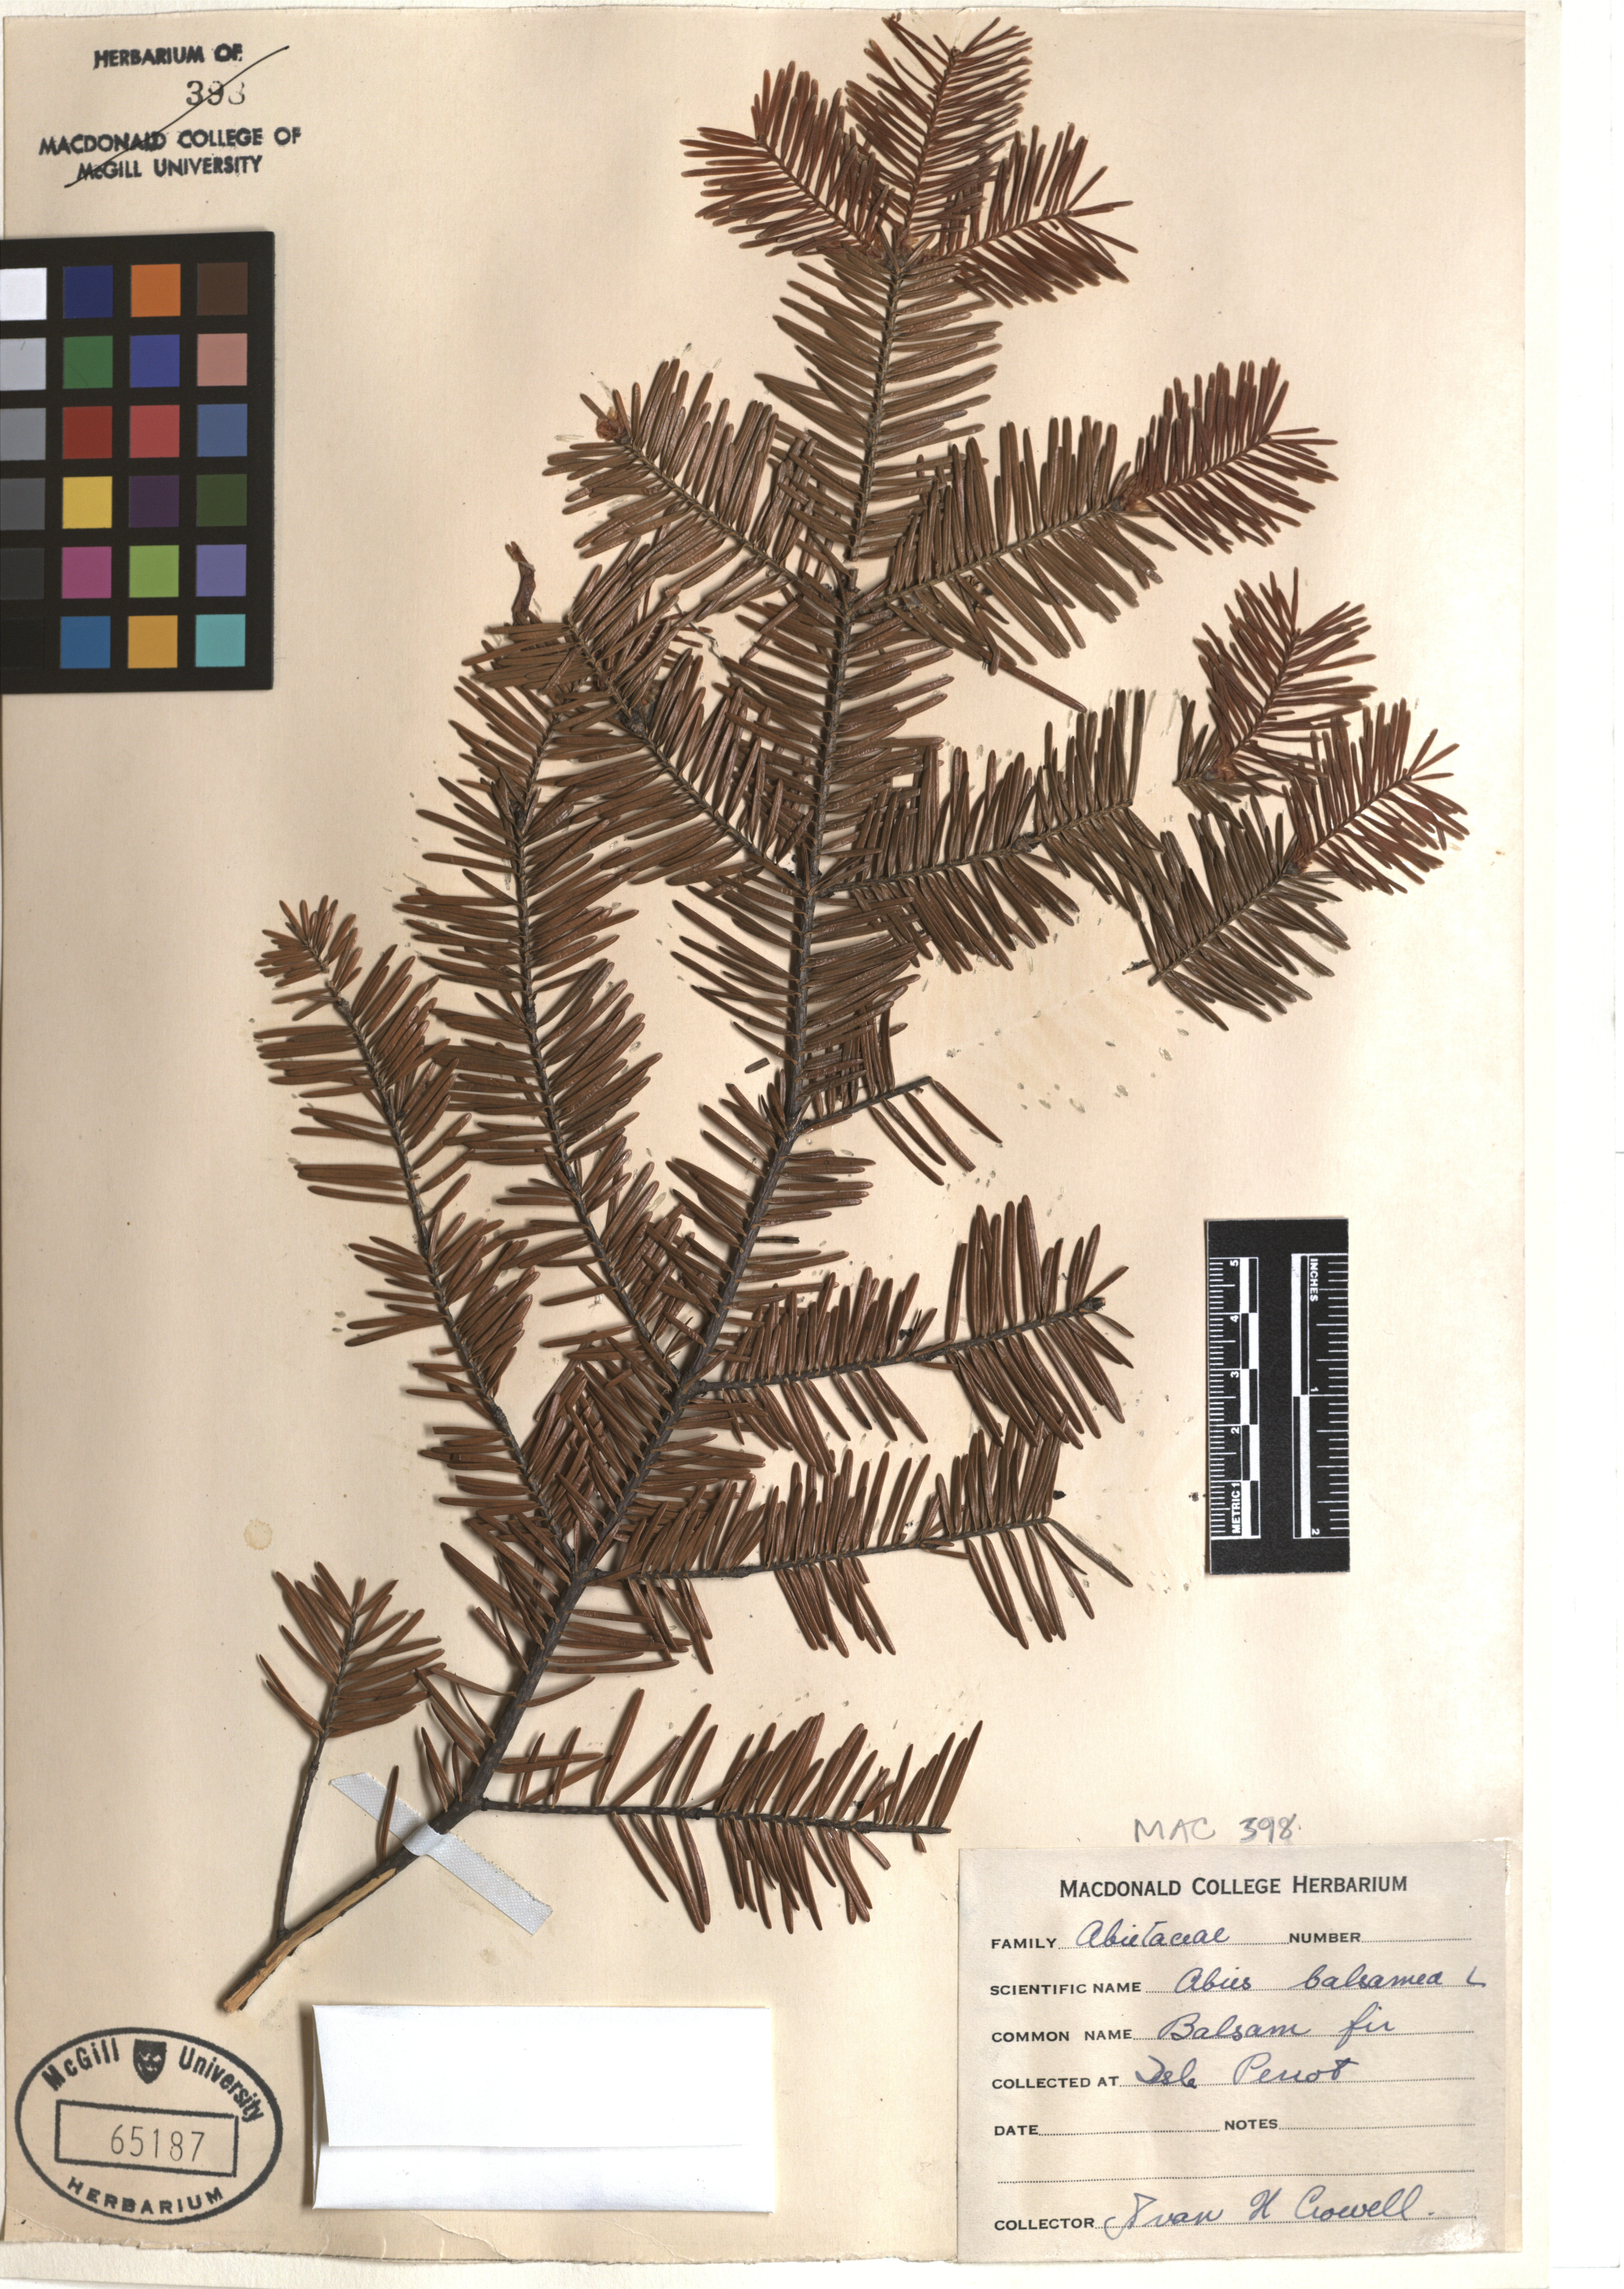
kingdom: Plantae
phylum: Tracheophyta
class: Pinopsida
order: Pinales
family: Pinaceae
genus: Abies
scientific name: Abies balsamea
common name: Balsam fir
